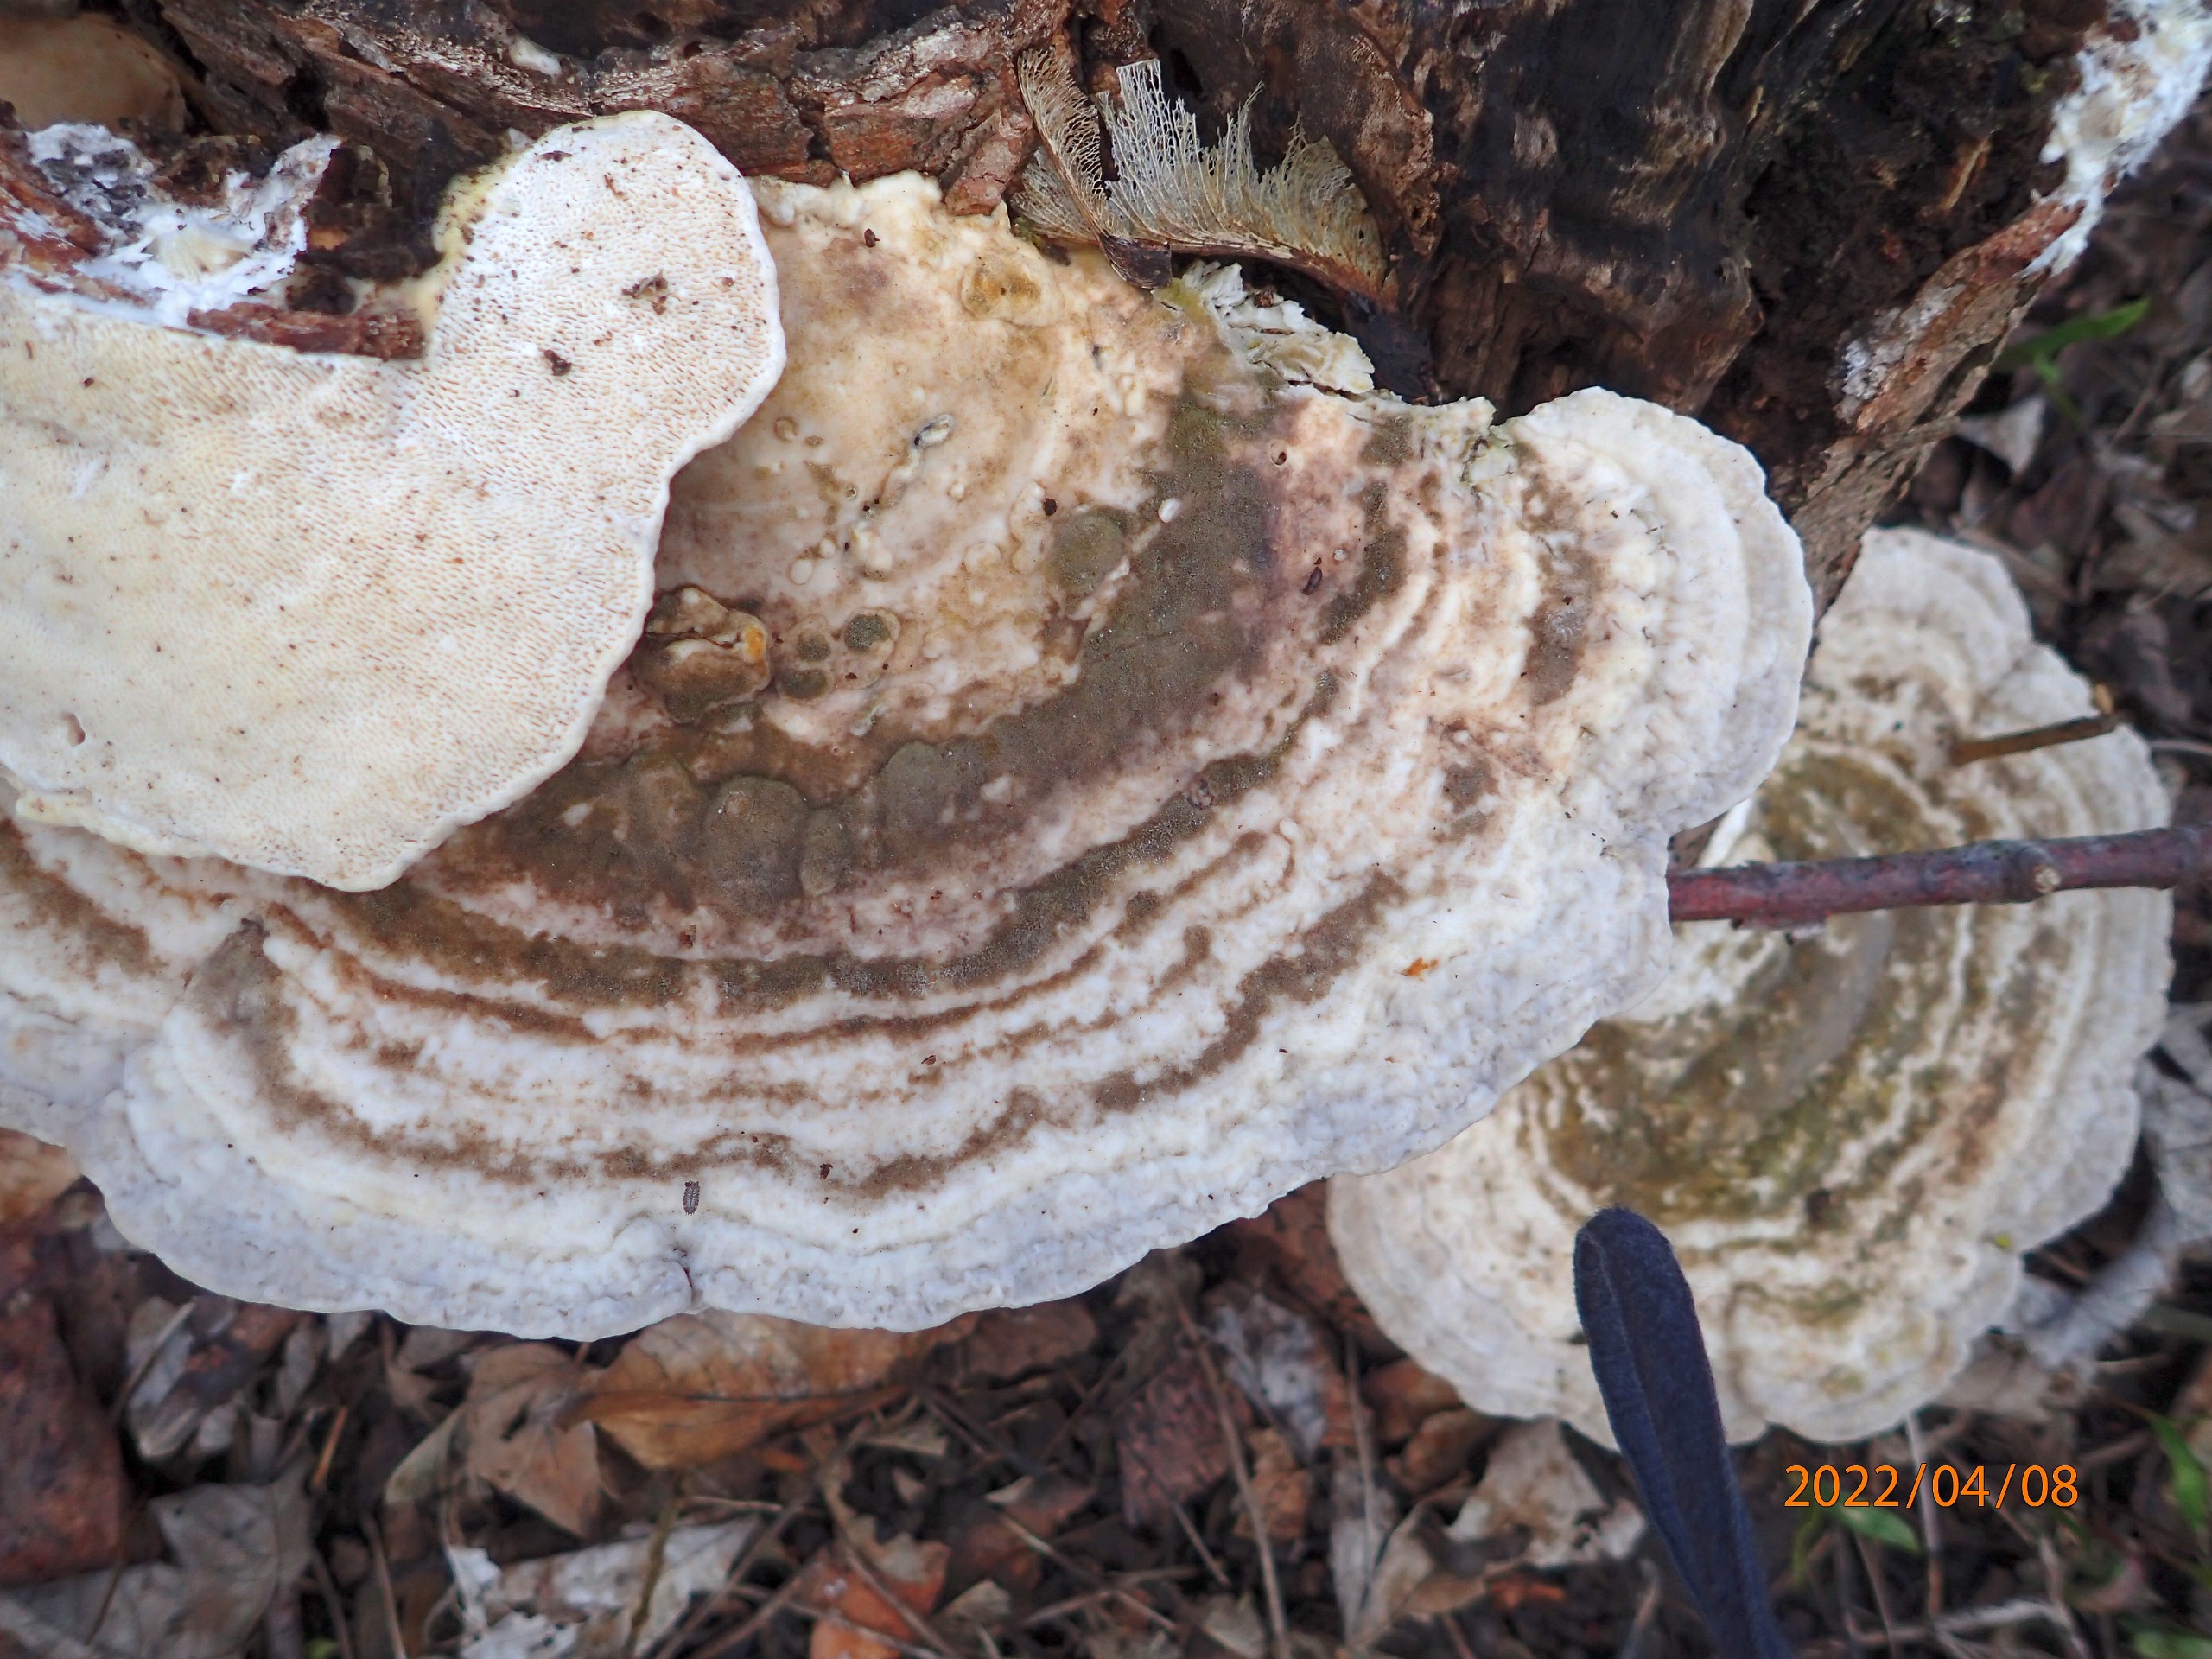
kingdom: Fungi
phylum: Basidiomycota
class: Agaricomycetes
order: Polyporales
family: Polyporaceae
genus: Trametes
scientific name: Trametes gibbosa
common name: Puklet læderporesvamp
